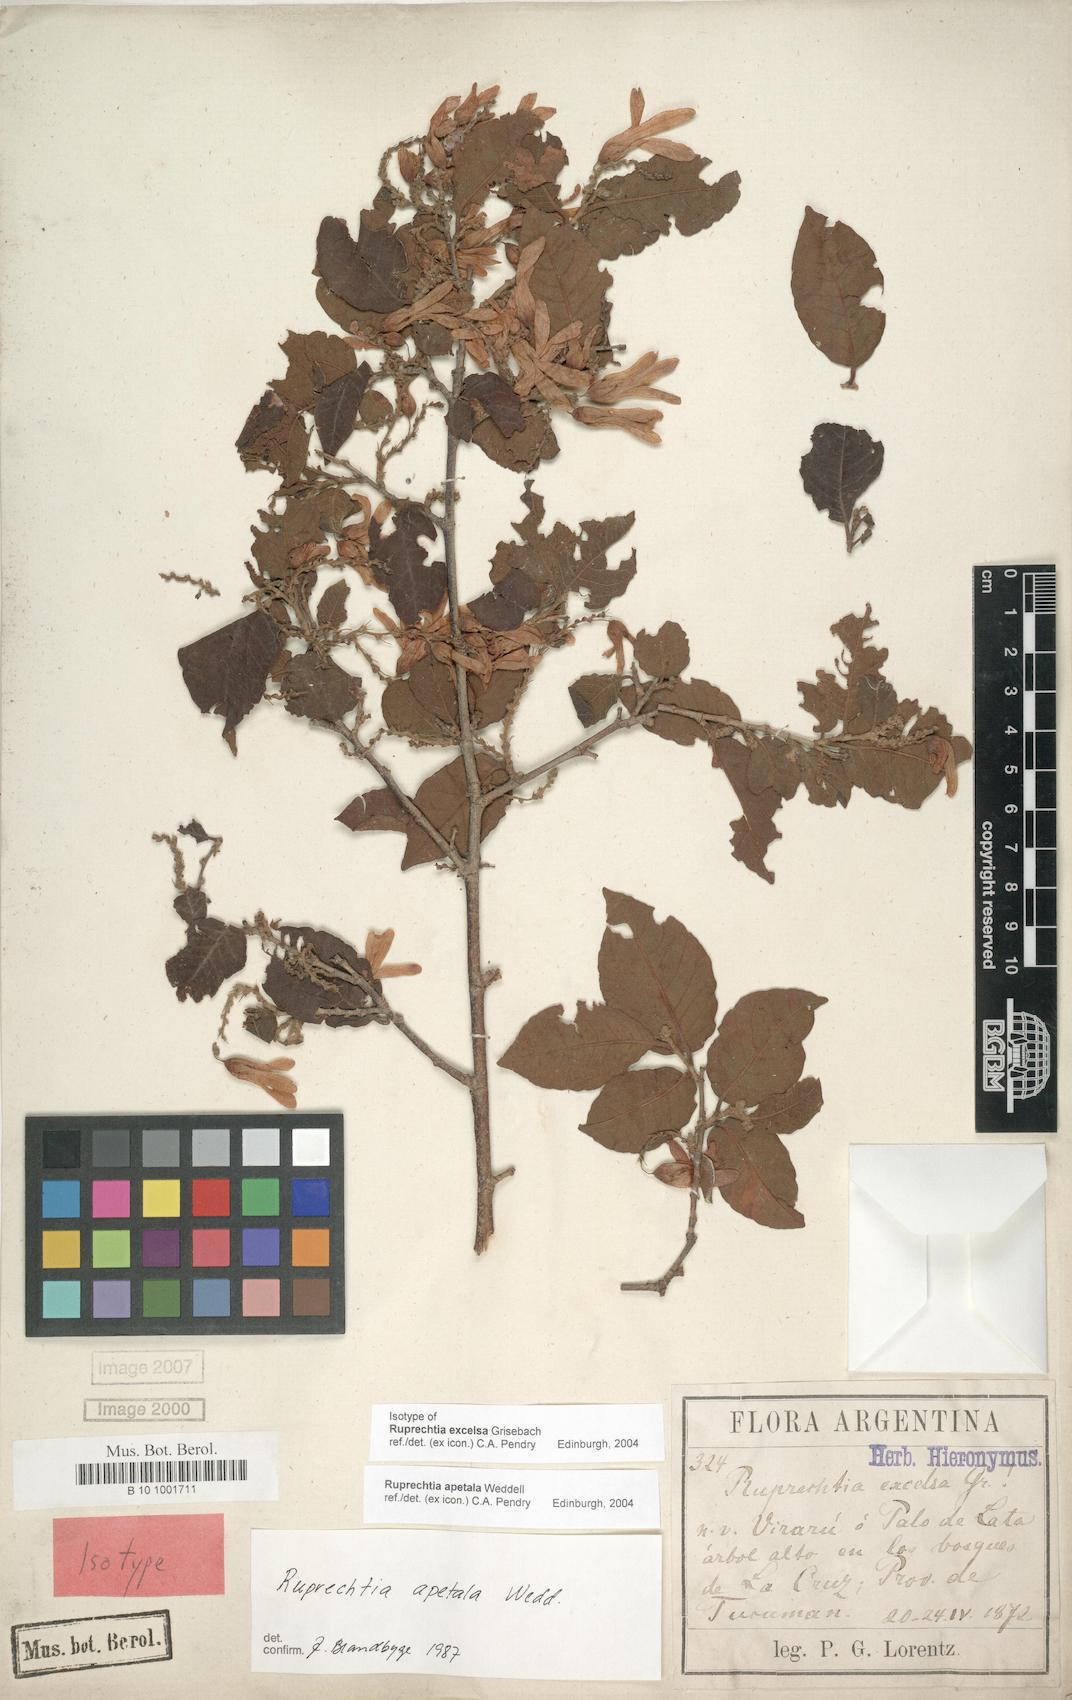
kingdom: Plantae
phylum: Tracheophyta
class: Magnoliopsida
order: Caryophyllales
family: Polygonaceae
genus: Ruprechtia
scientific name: Ruprechtia apetala
